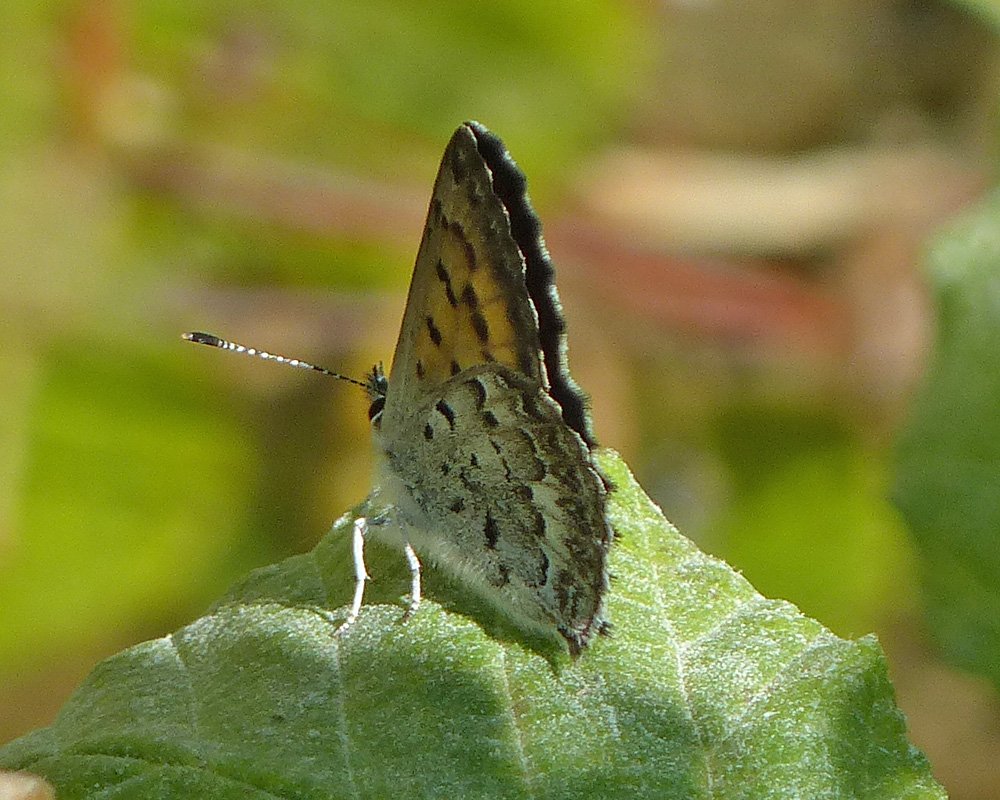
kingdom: Animalia
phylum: Arthropoda
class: Insecta
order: Lepidoptera
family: Lycaenidae
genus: Lycaena
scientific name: Lycaena mariposa
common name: Mariposa Copper
